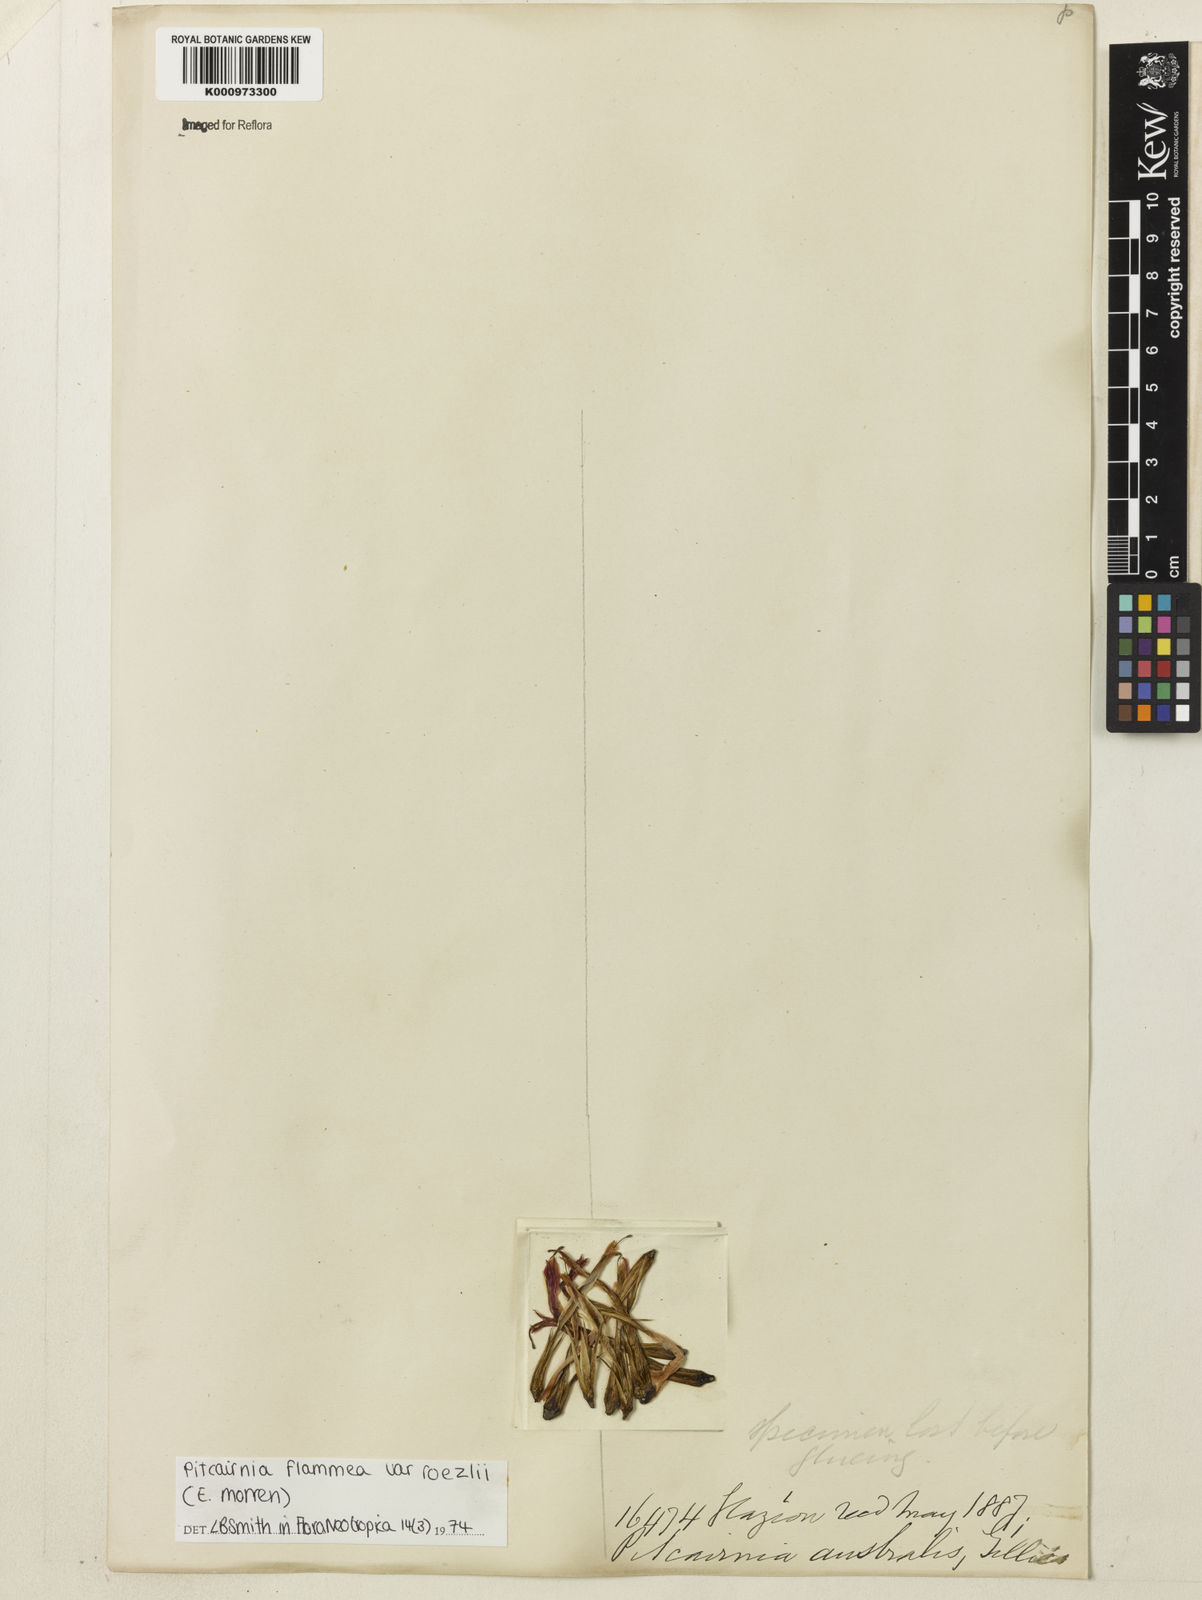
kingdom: Plantae
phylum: Tracheophyta
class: Liliopsida
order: Poales
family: Bromeliaceae
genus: Pitcairnia
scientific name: Pitcairnia flammea
